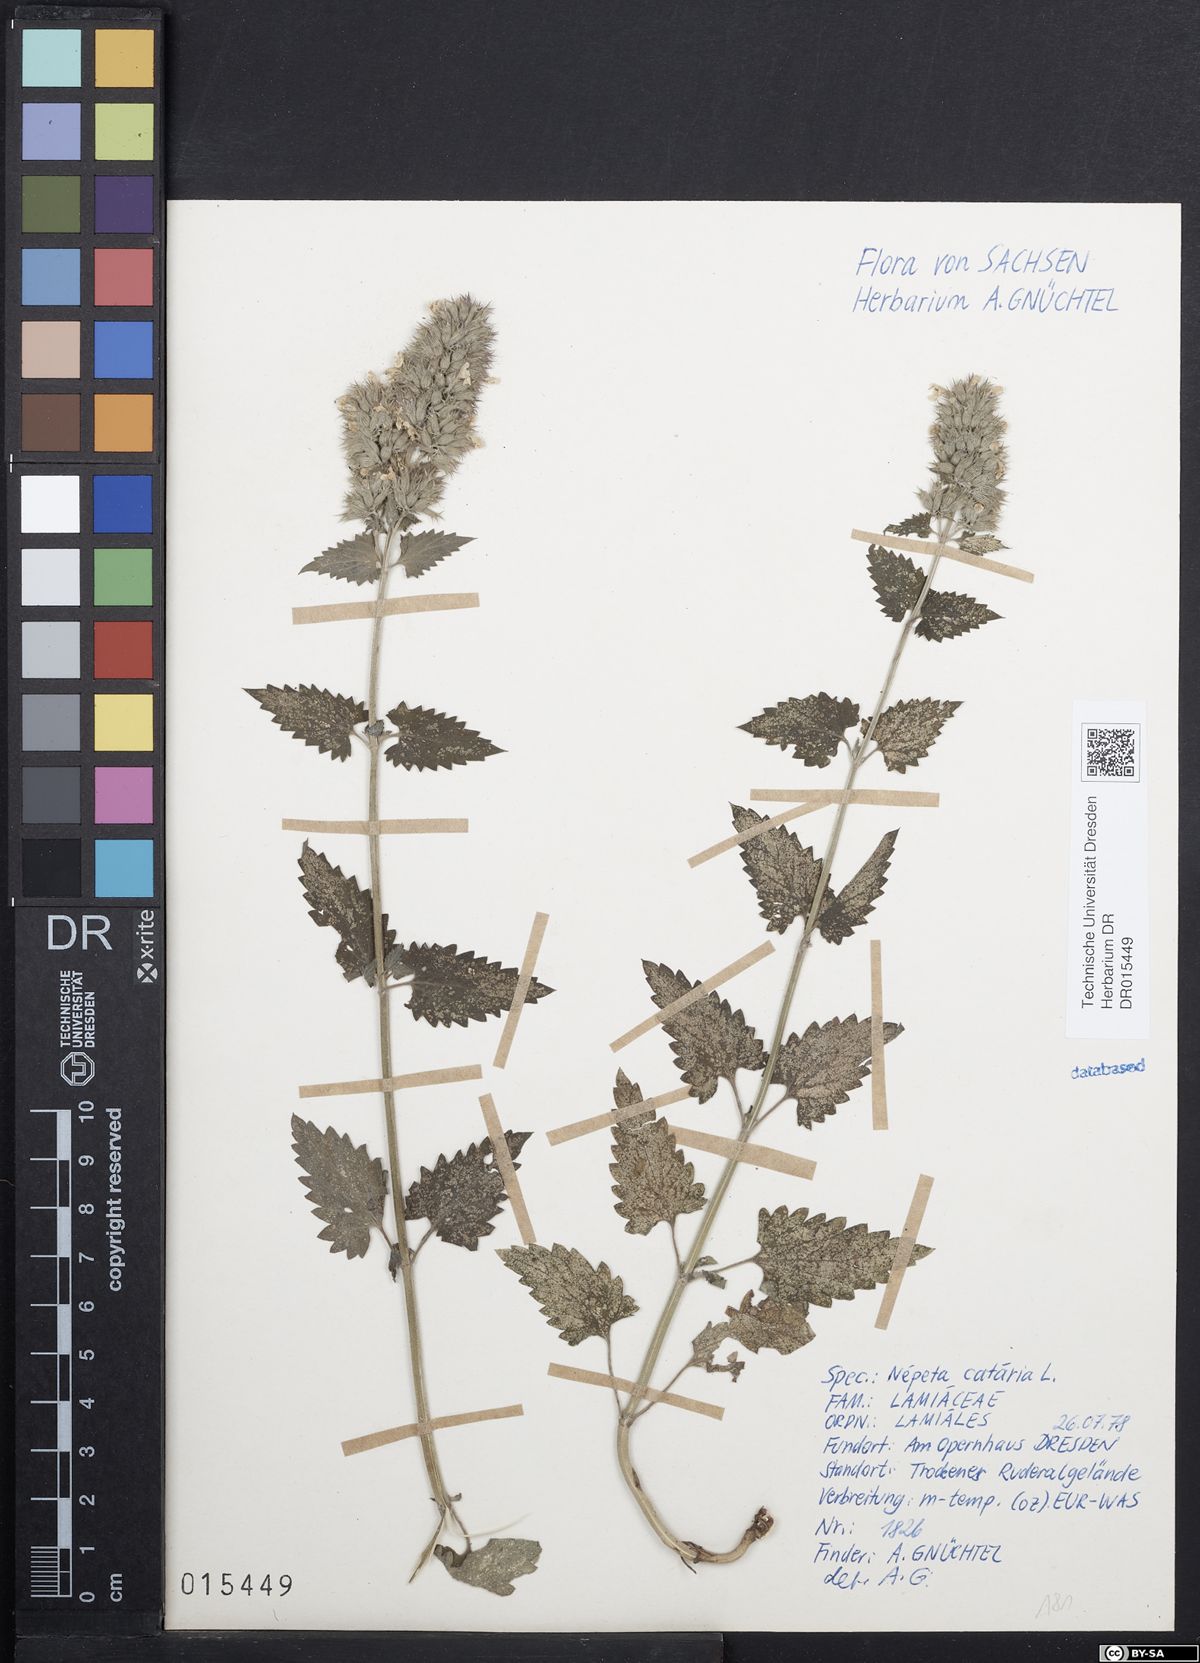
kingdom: Plantae
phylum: Tracheophyta
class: Magnoliopsida
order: Lamiales
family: Lamiaceae
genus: Nepeta
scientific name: Nepeta cataria
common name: Catnip
